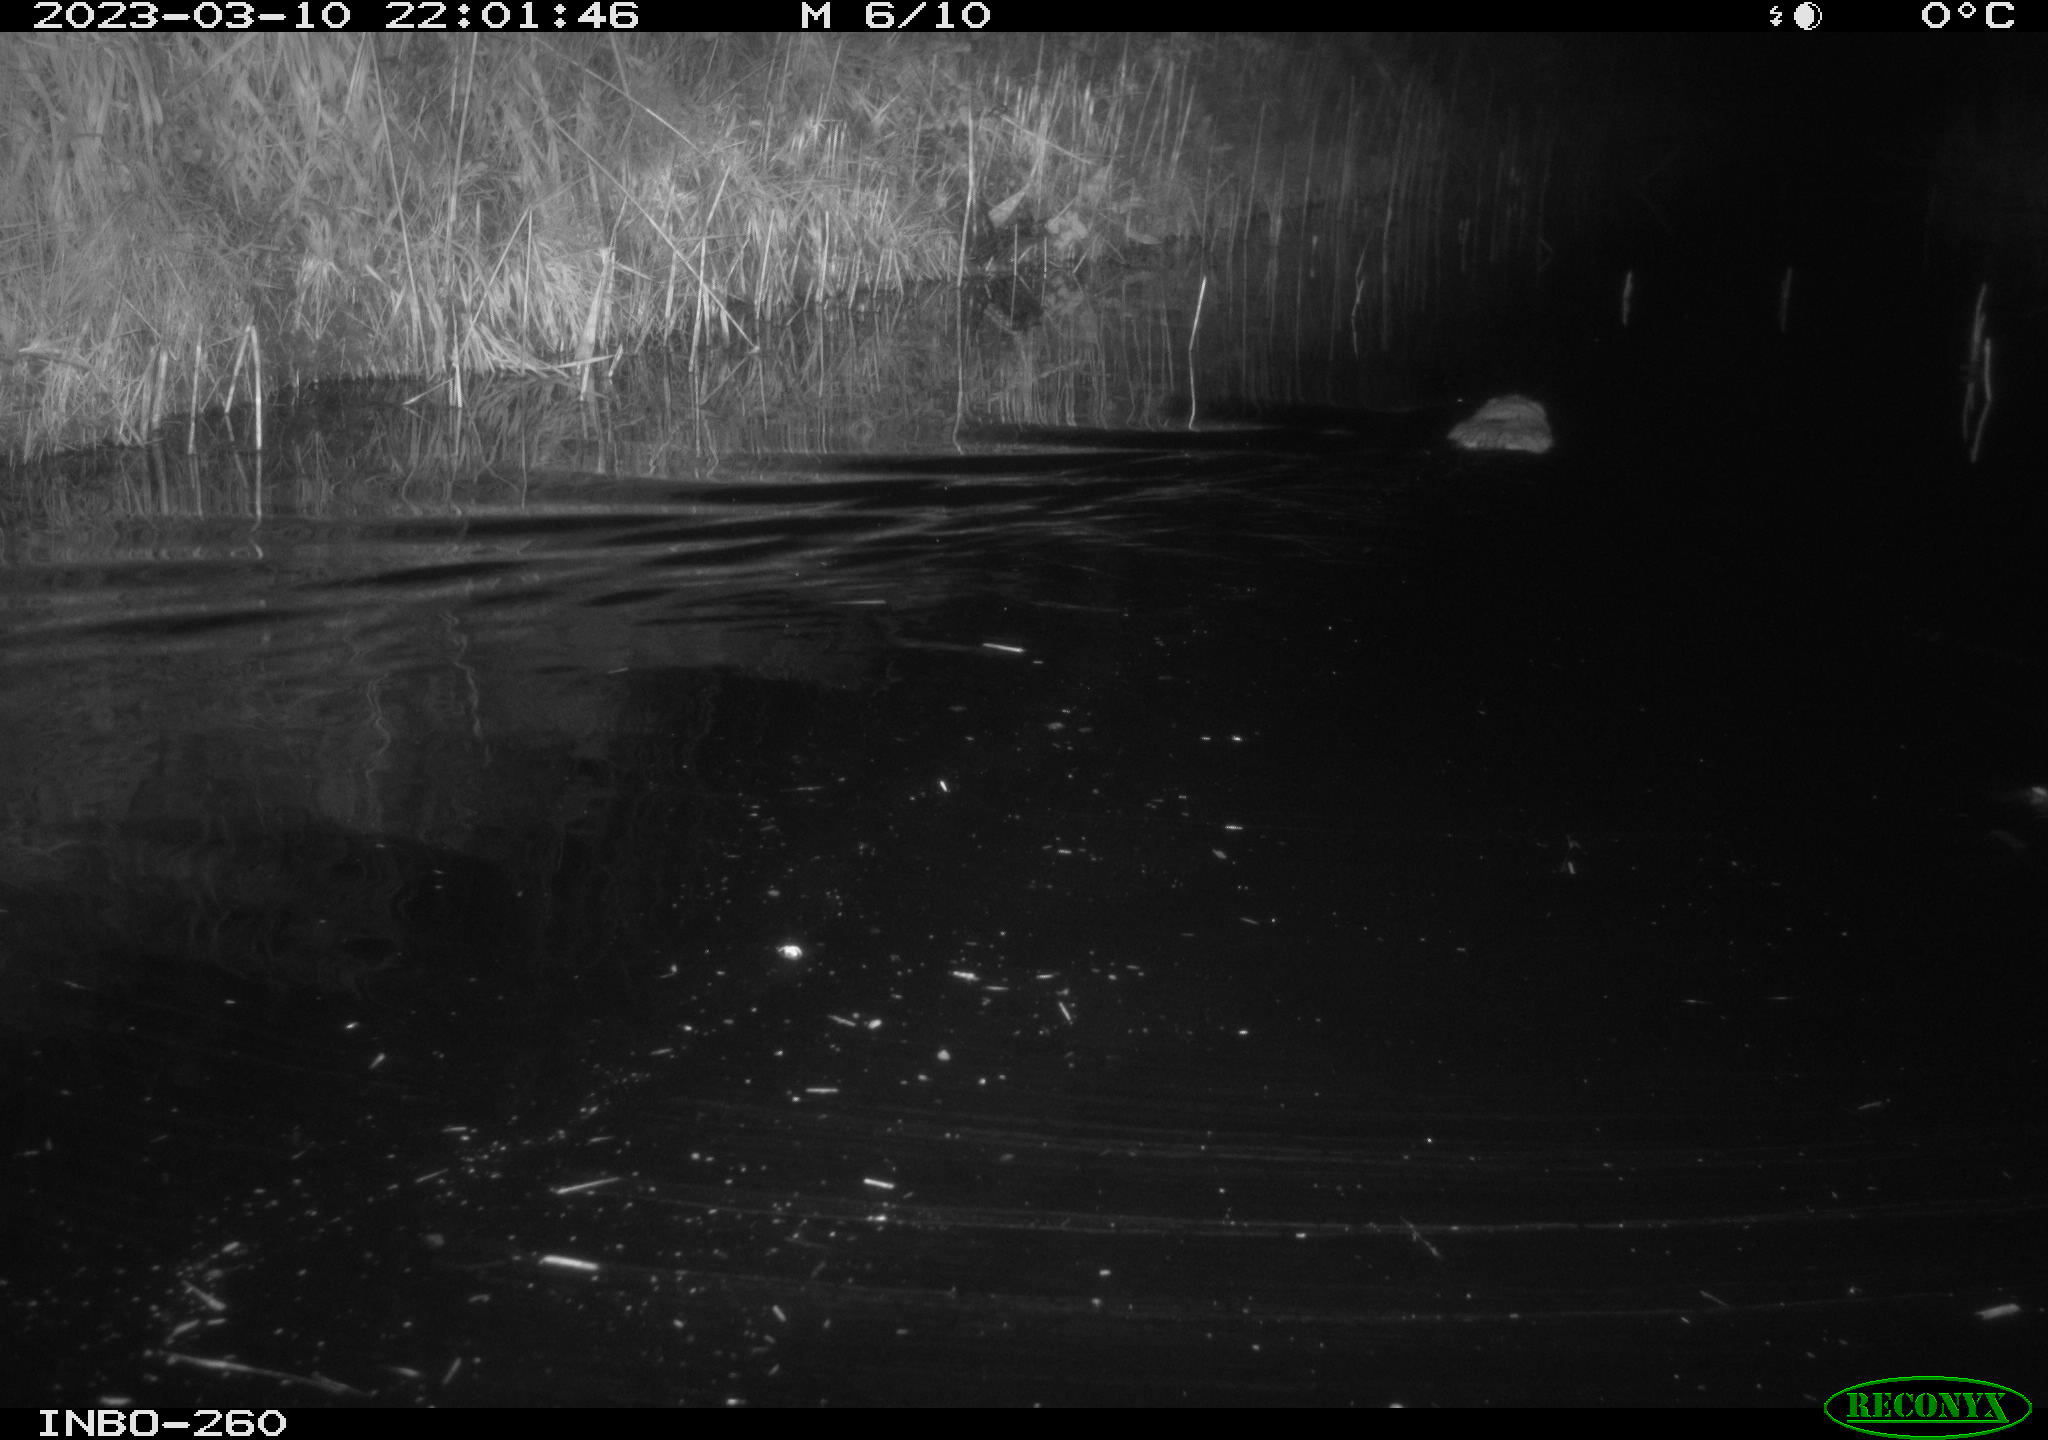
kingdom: Animalia
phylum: Chordata
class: Mammalia
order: Rodentia
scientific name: Rodentia
